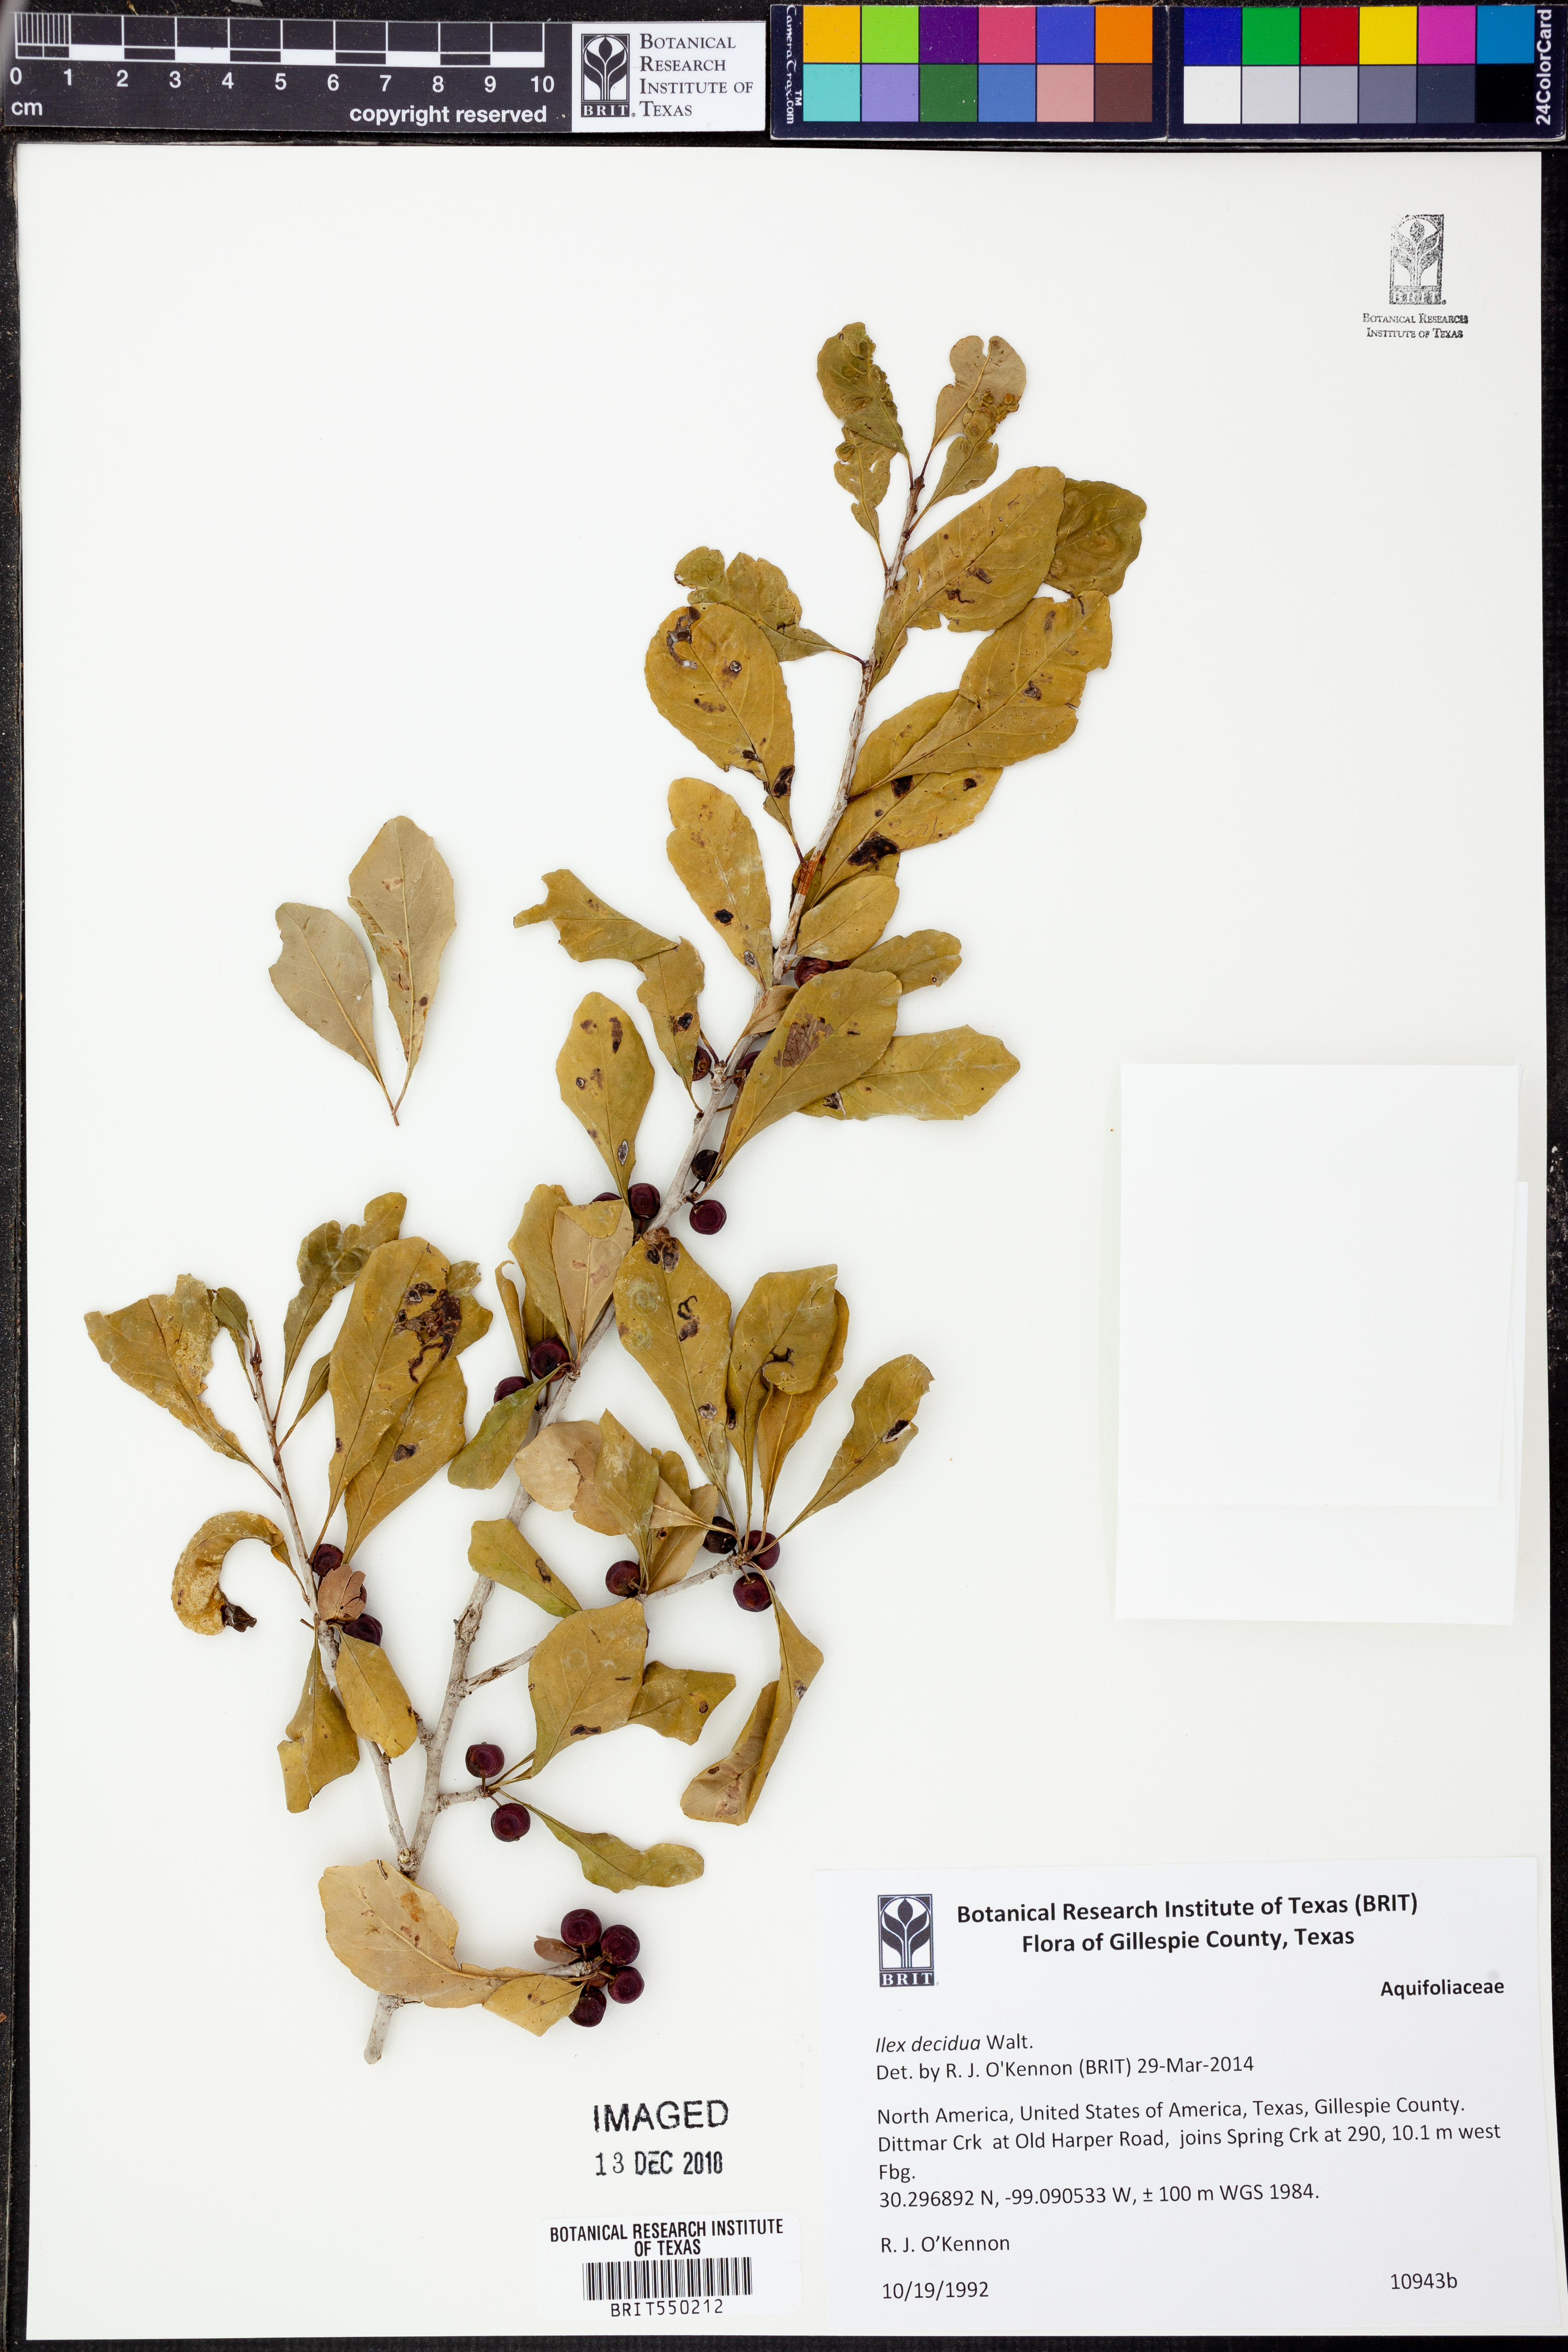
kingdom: Plantae
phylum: Tracheophyta
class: Magnoliopsida
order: Aquifoliales
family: Aquifoliaceae
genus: Ilex
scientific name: Ilex decidua
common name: Possum-haw
